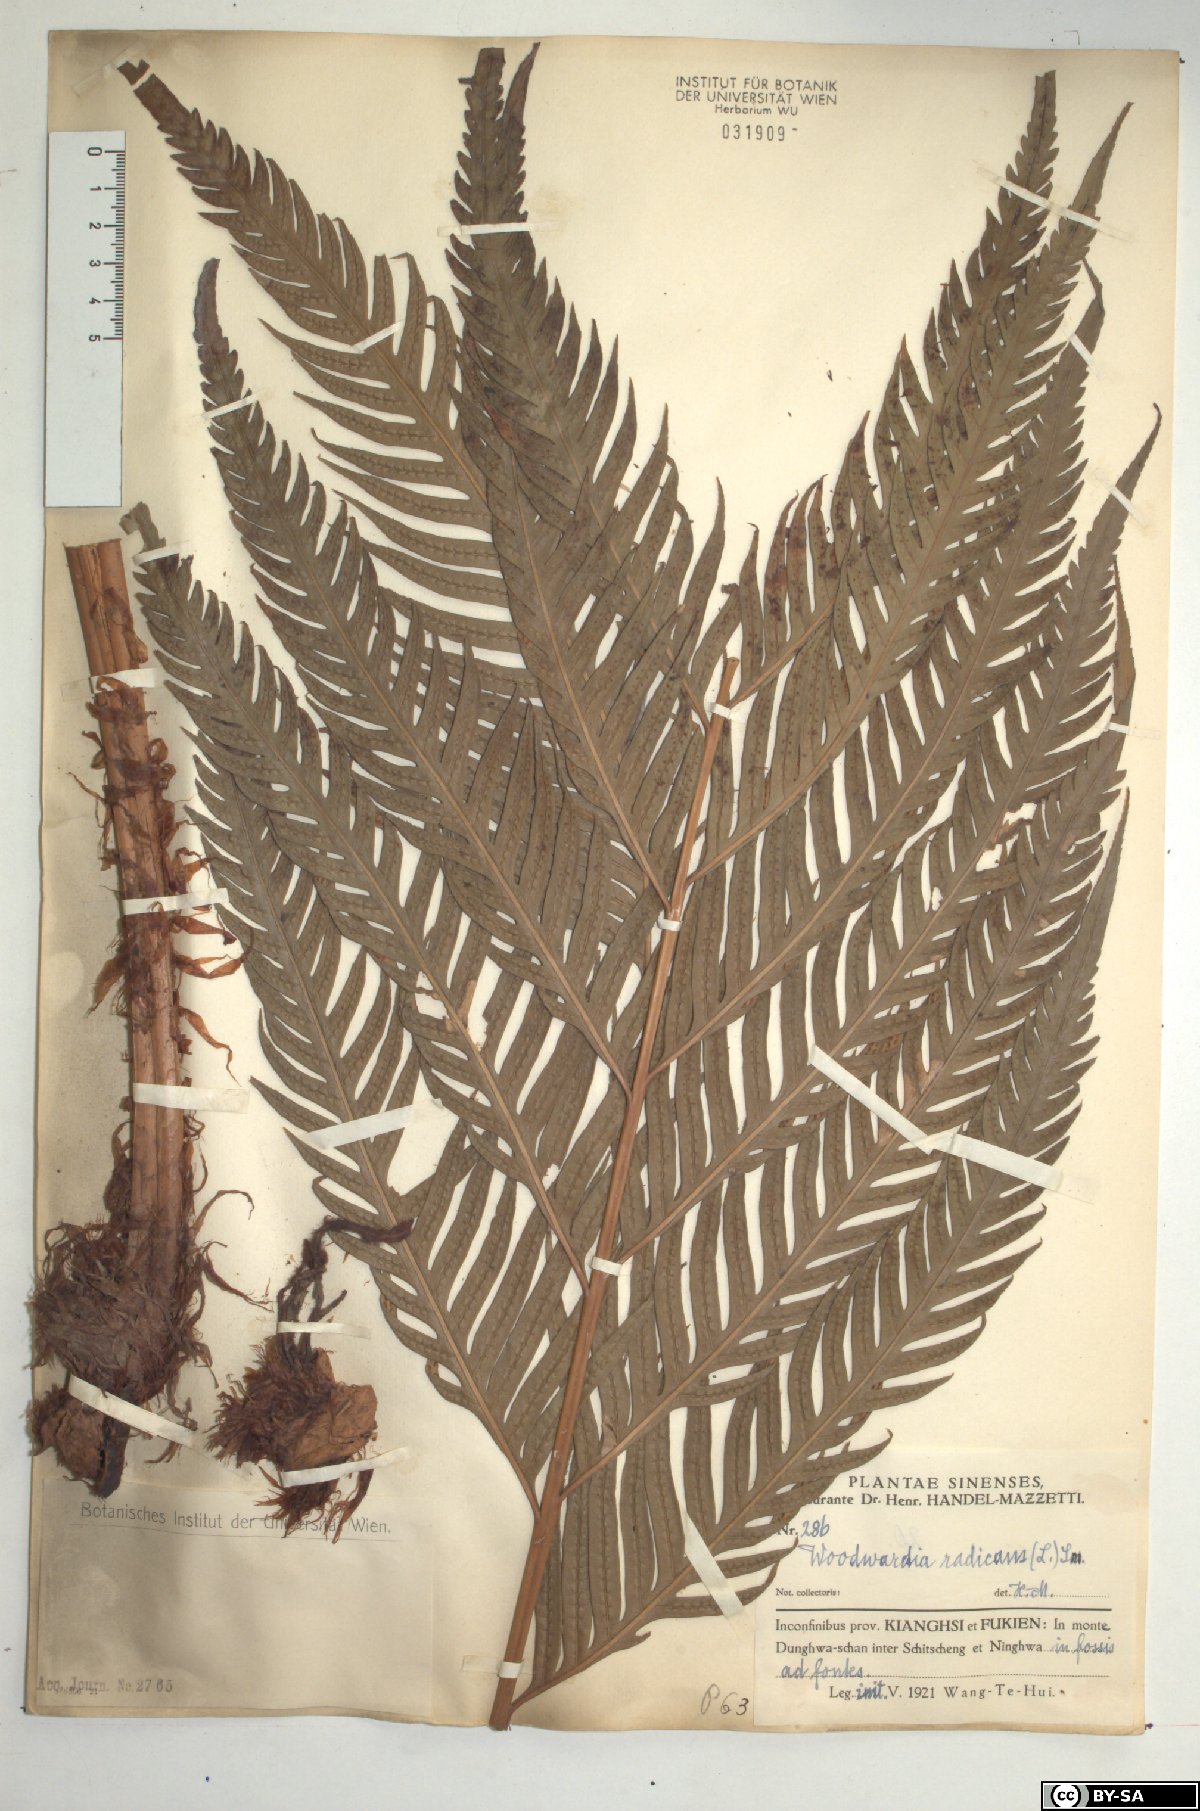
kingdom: Plantae
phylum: Tracheophyta
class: Polypodiopsida
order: Polypodiales
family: Blechnaceae
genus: Woodwardia
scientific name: Woodwardia radicans
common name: Rooting chainfern
